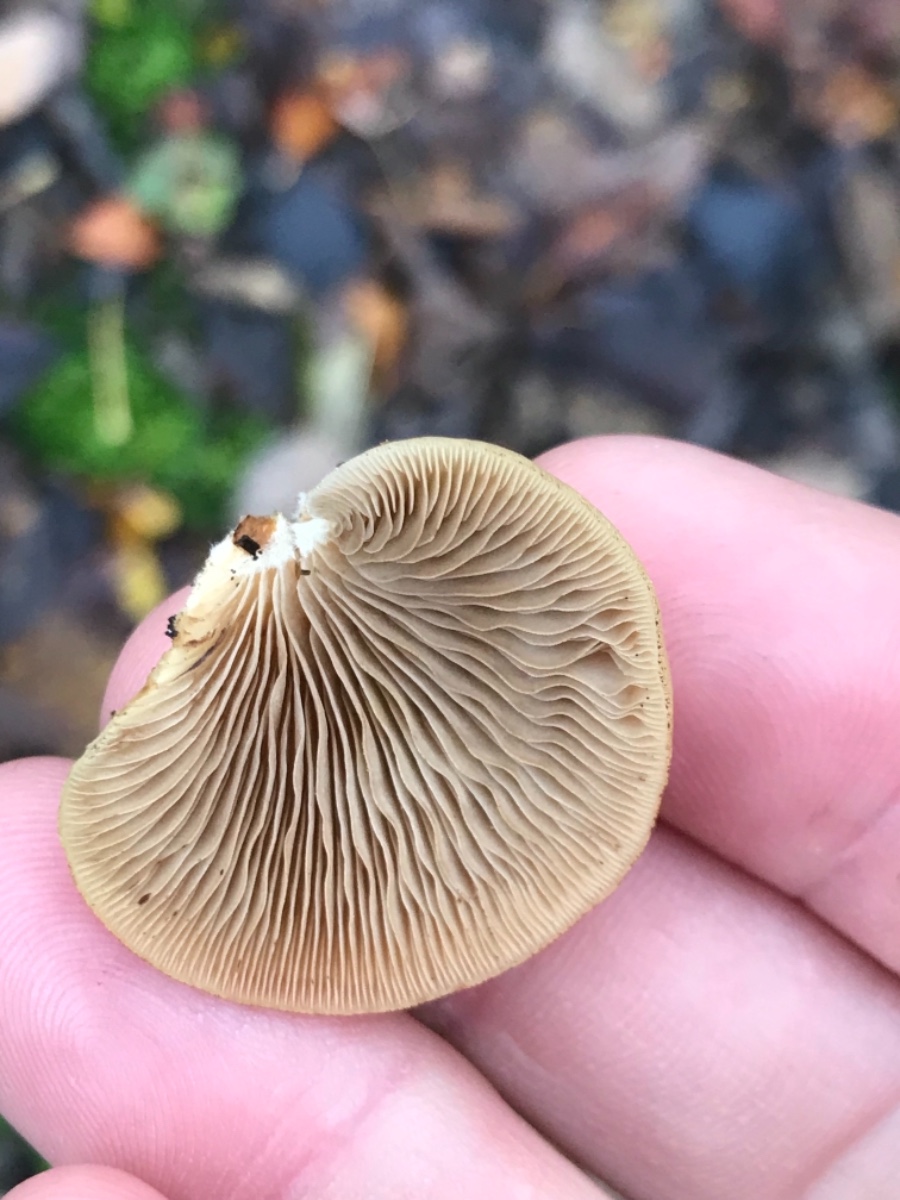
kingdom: Fungi
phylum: Basidiomycota
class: Agaricomycetes
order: Agaricales
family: Crepidotaceae
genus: Crepidotus
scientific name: Crepidotus mollis
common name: blød muslingesvamp
